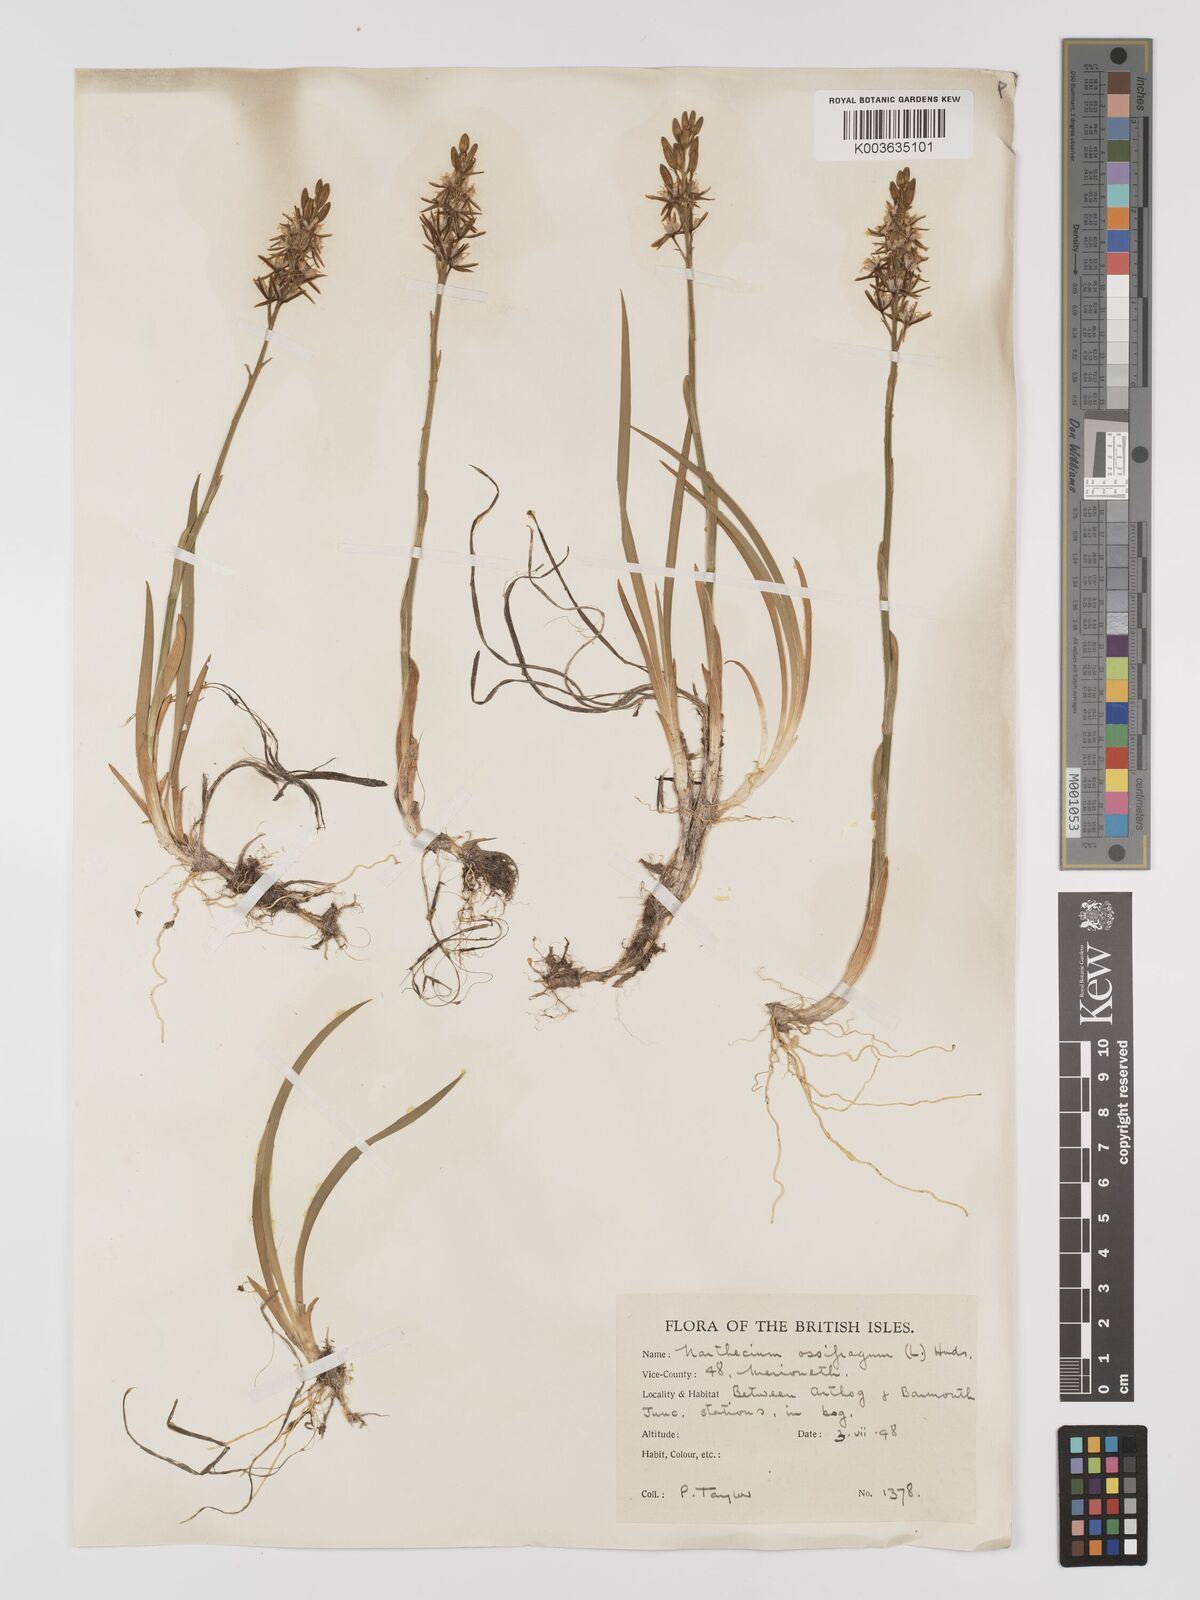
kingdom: Plantae
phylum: Tracheophyta
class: Liliopsida
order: Dioscoreales
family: Nartheciaceae
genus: Narthecium
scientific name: Narthecium
